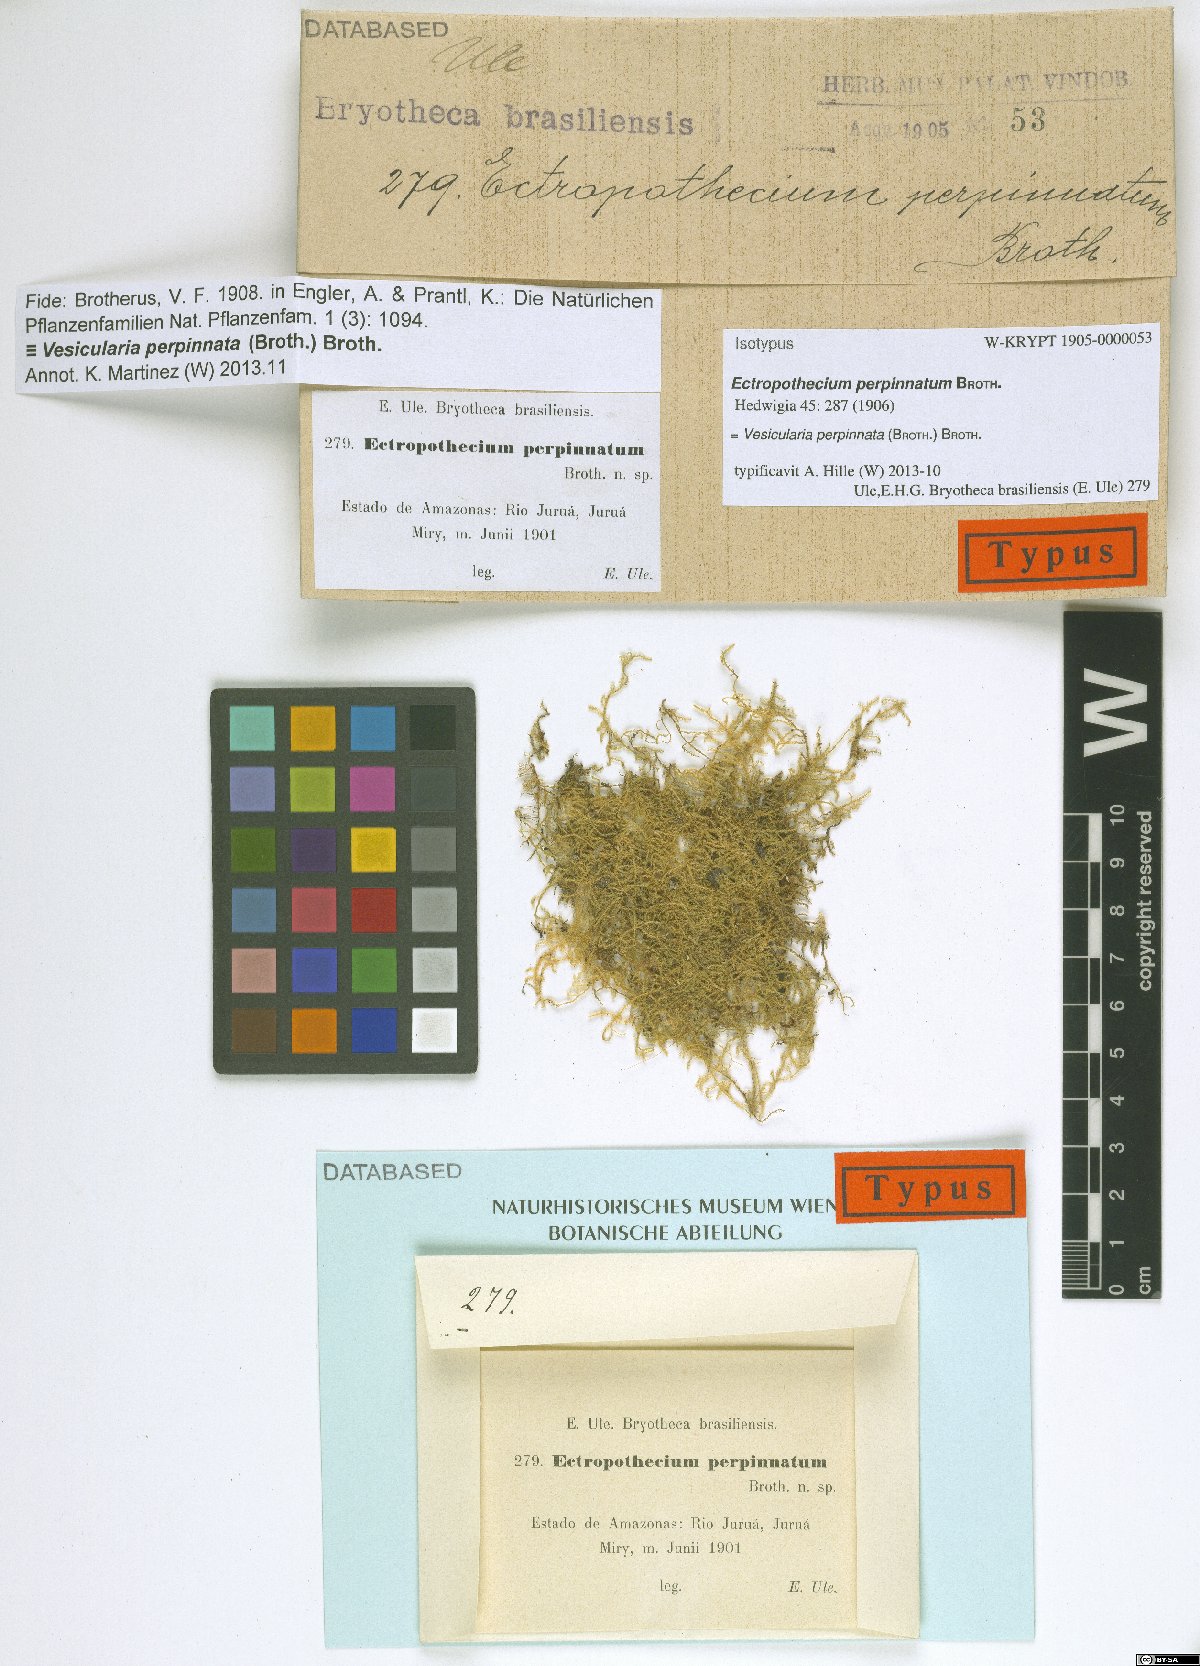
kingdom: Plantae
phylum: Bryophyta
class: Bryopsida
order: Hypnales
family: Hypnaceae
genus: Vesicularia
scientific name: Vesicularia perpinnata
